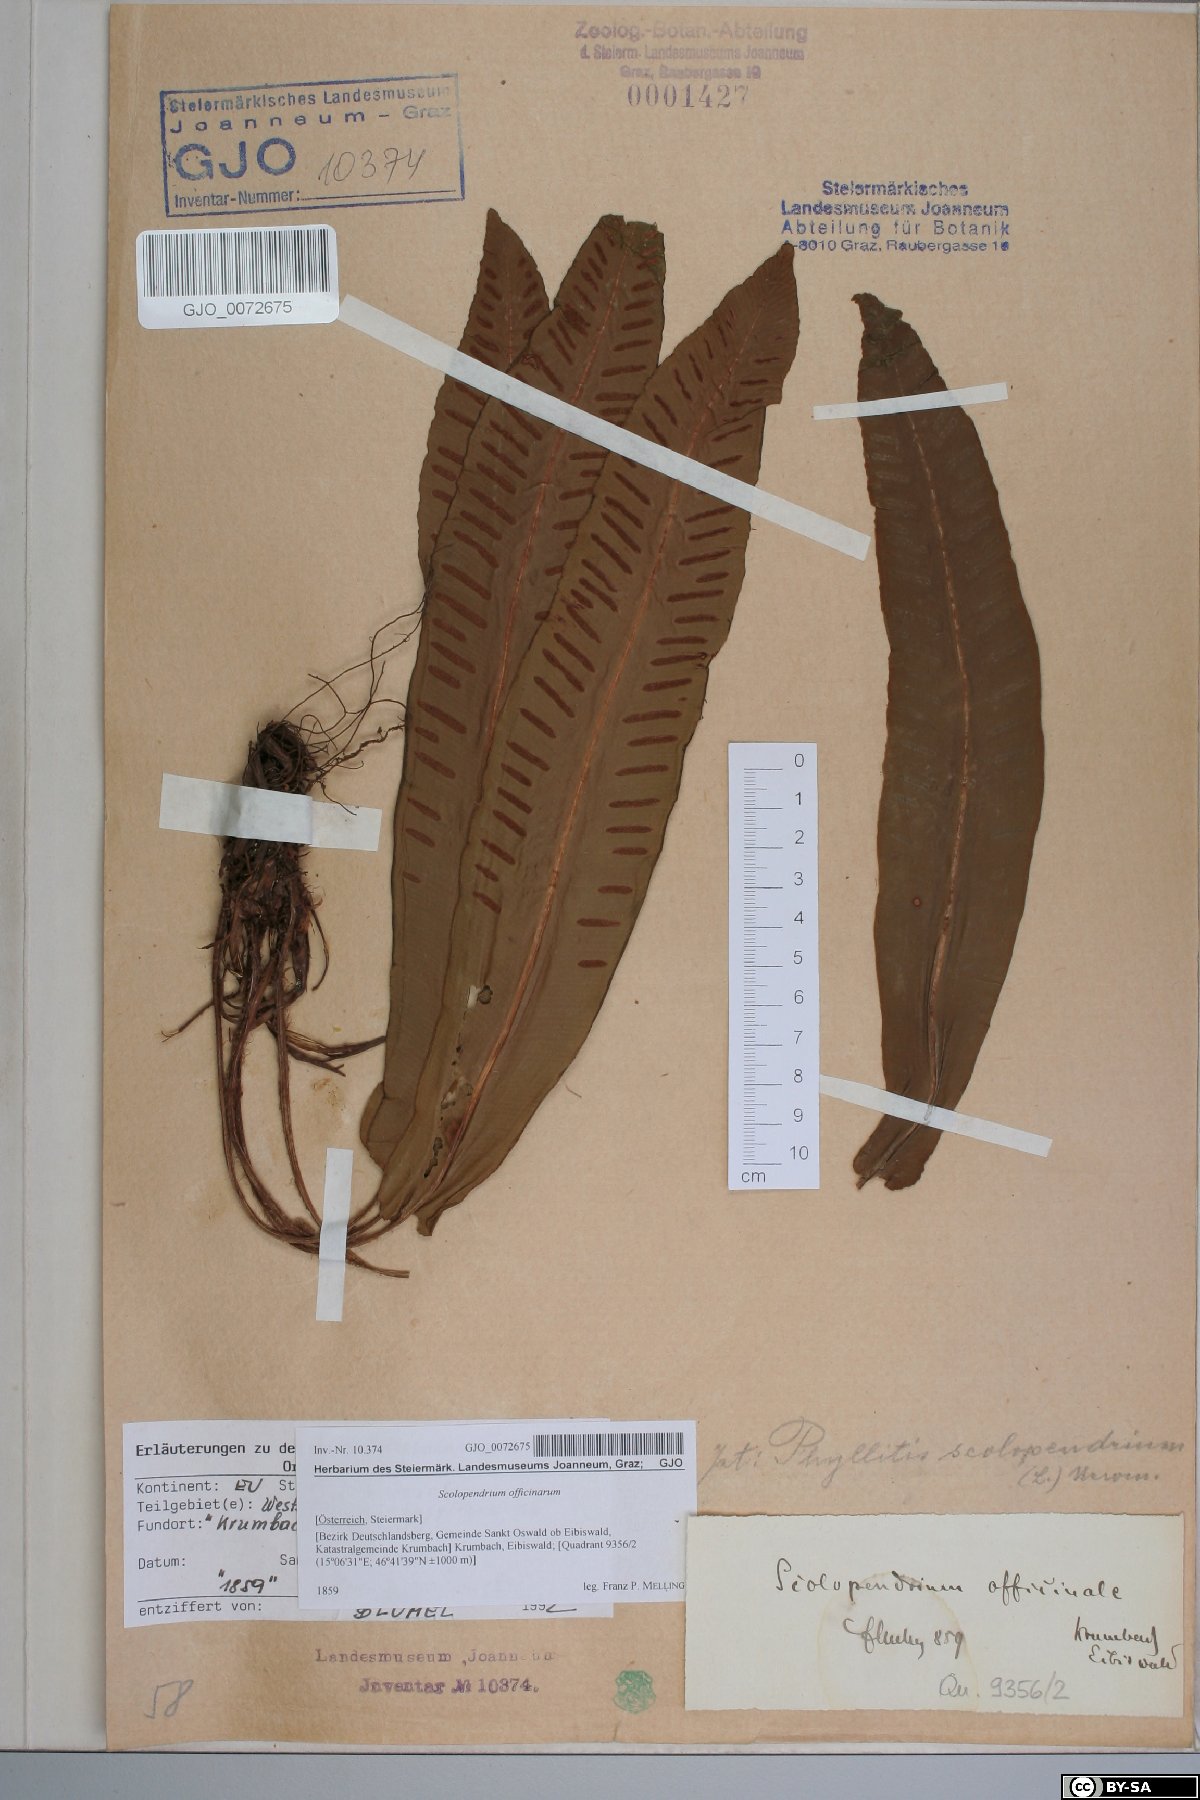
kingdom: Plantae
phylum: Tracheophyta
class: Polypodiopsida
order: Polypodiales
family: Aspleniaceae
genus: Asplenium
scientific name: Asplenium scolopendrium
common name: Hart's-tongue fern
